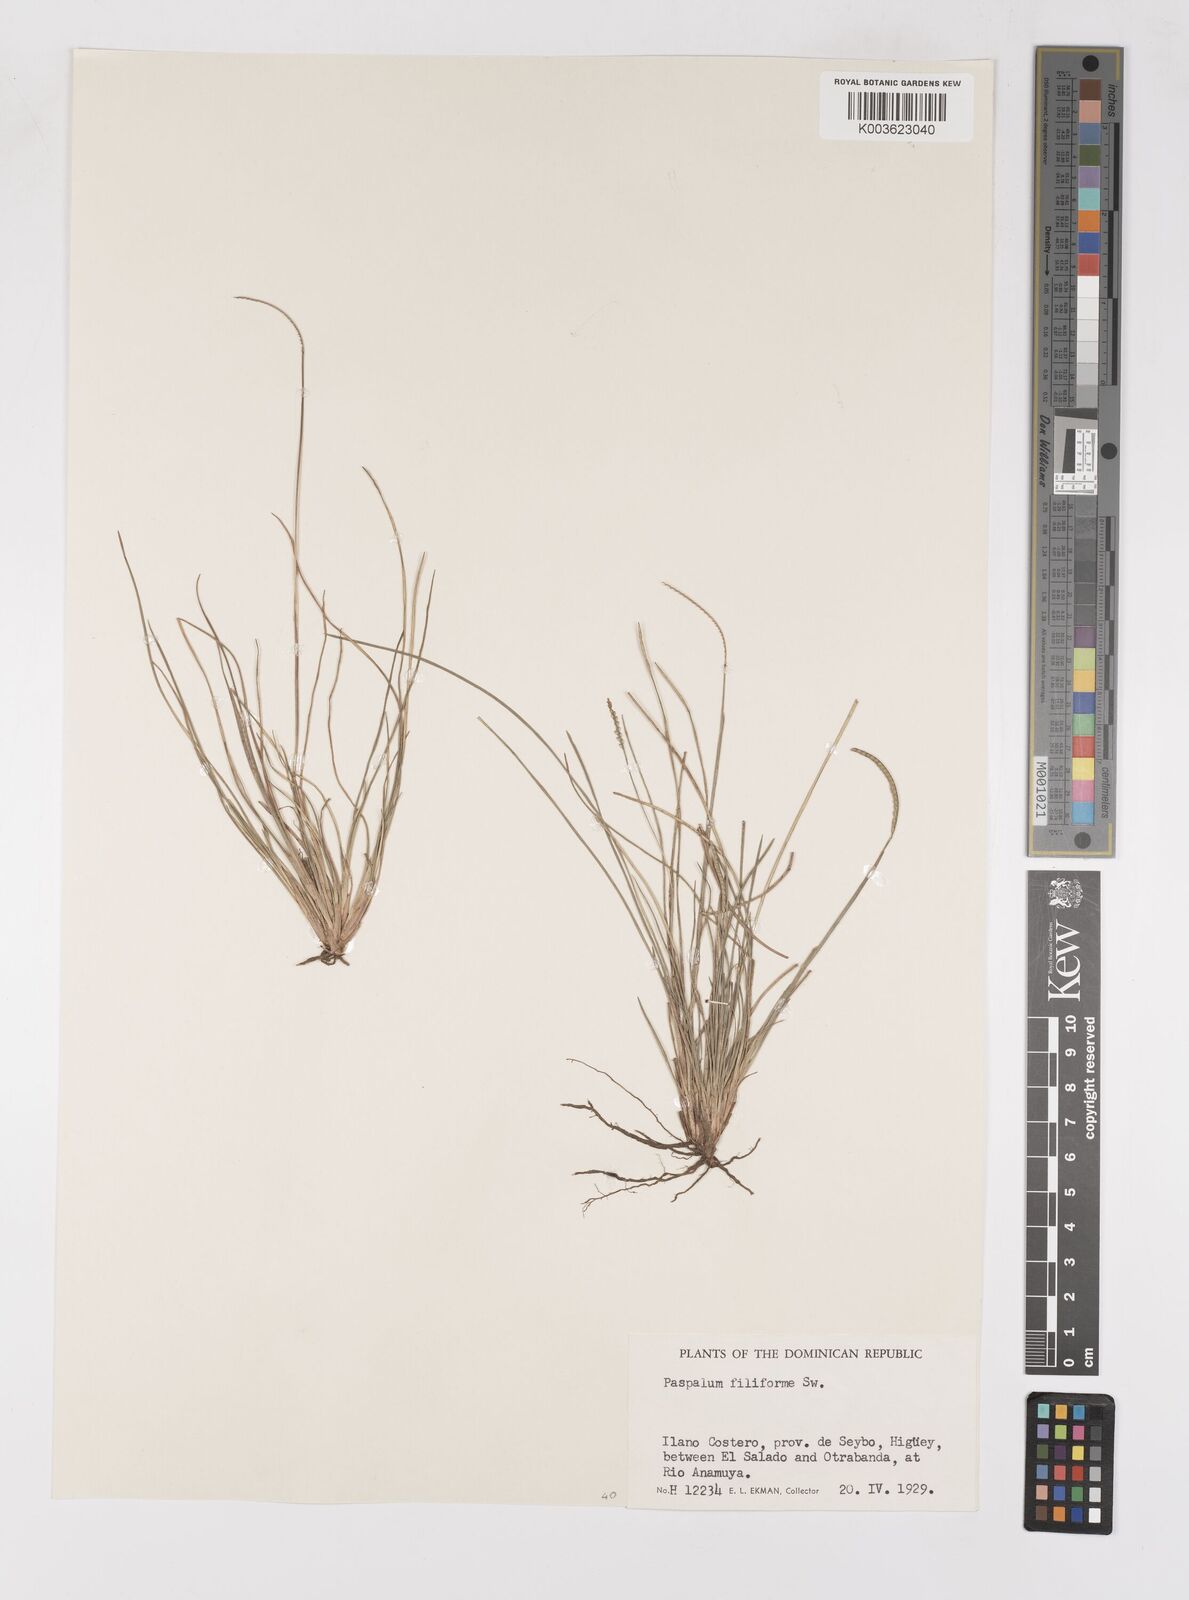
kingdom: Plantae
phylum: Tracheophyta
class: Liliopsida
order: Poales
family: Poaceae
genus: Paspalum
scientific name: Paspalum filiforme
